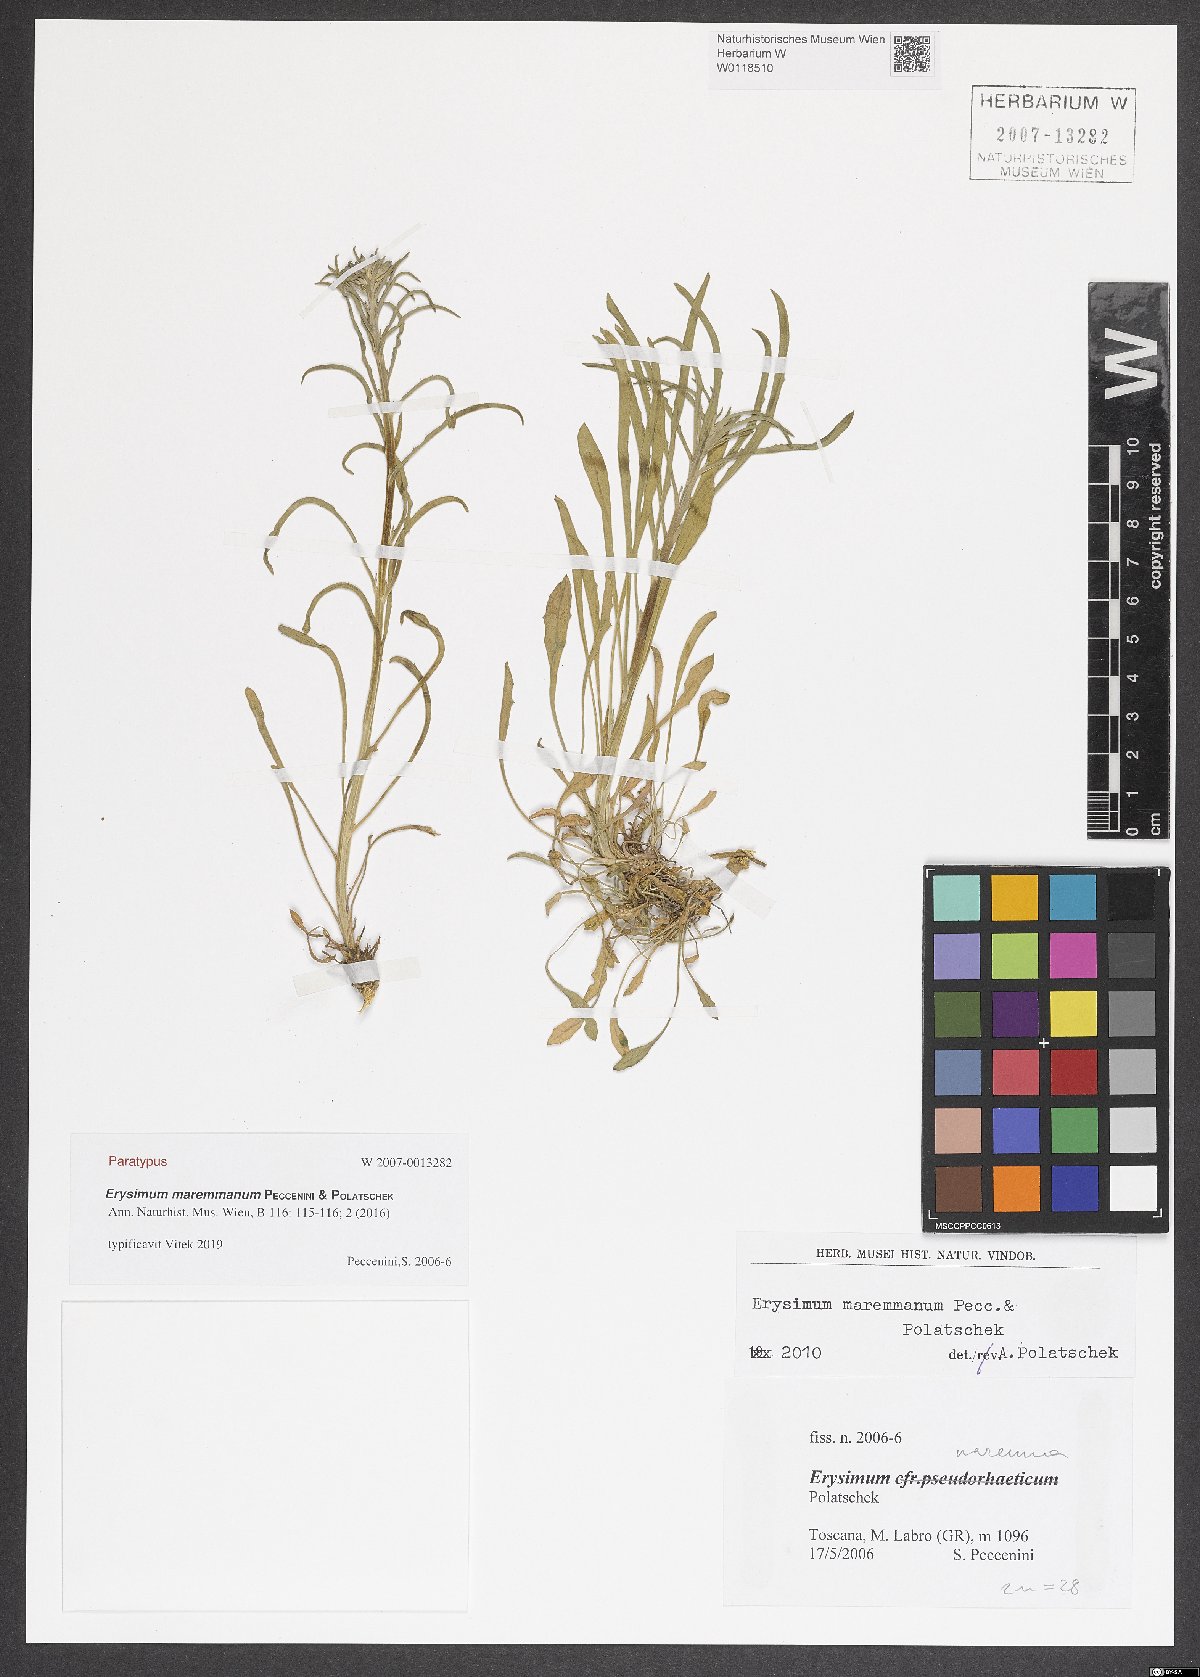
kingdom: Plantae
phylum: Tracheophyta
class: Magnoliopsida
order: Brassicales
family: Brassicaceae
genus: Erysimum
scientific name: Erysimum maremmanum
